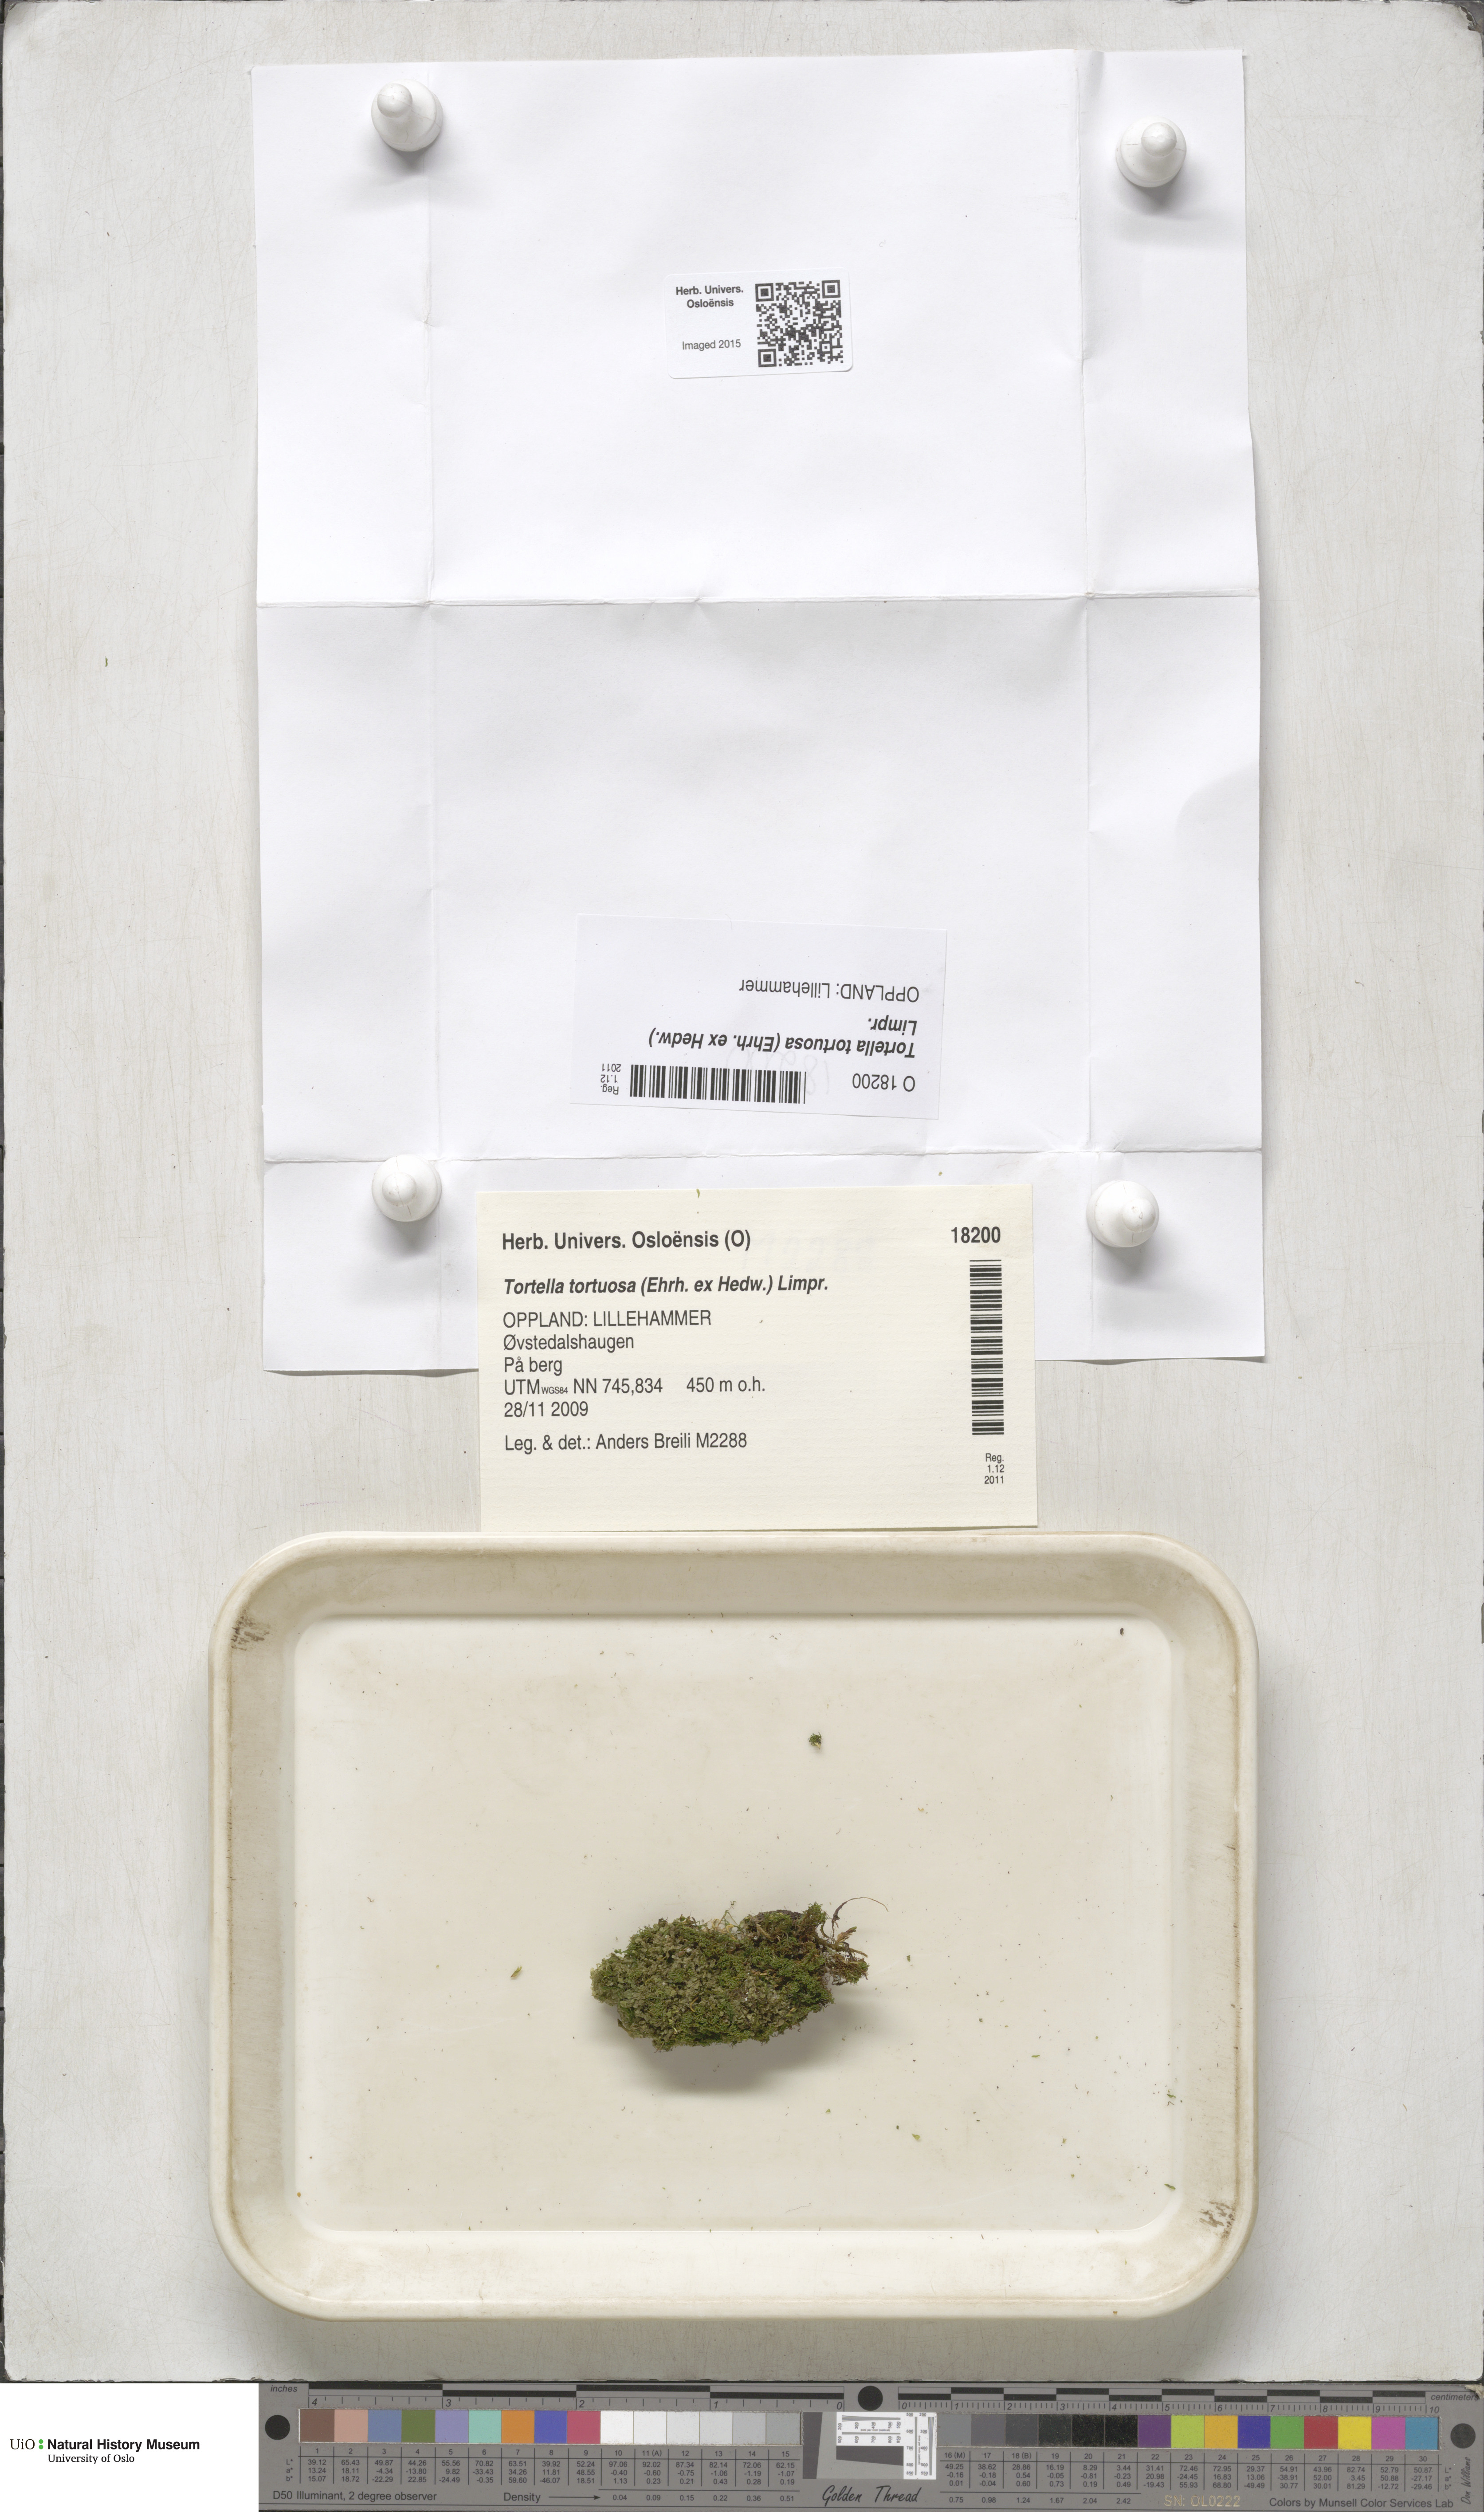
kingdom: Plantae
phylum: Bryophyta
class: Bryopsida
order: Pottiales
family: Pottiaceae
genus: Tortella
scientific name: Tortella tortuosa
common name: Frizzled crisp moss
